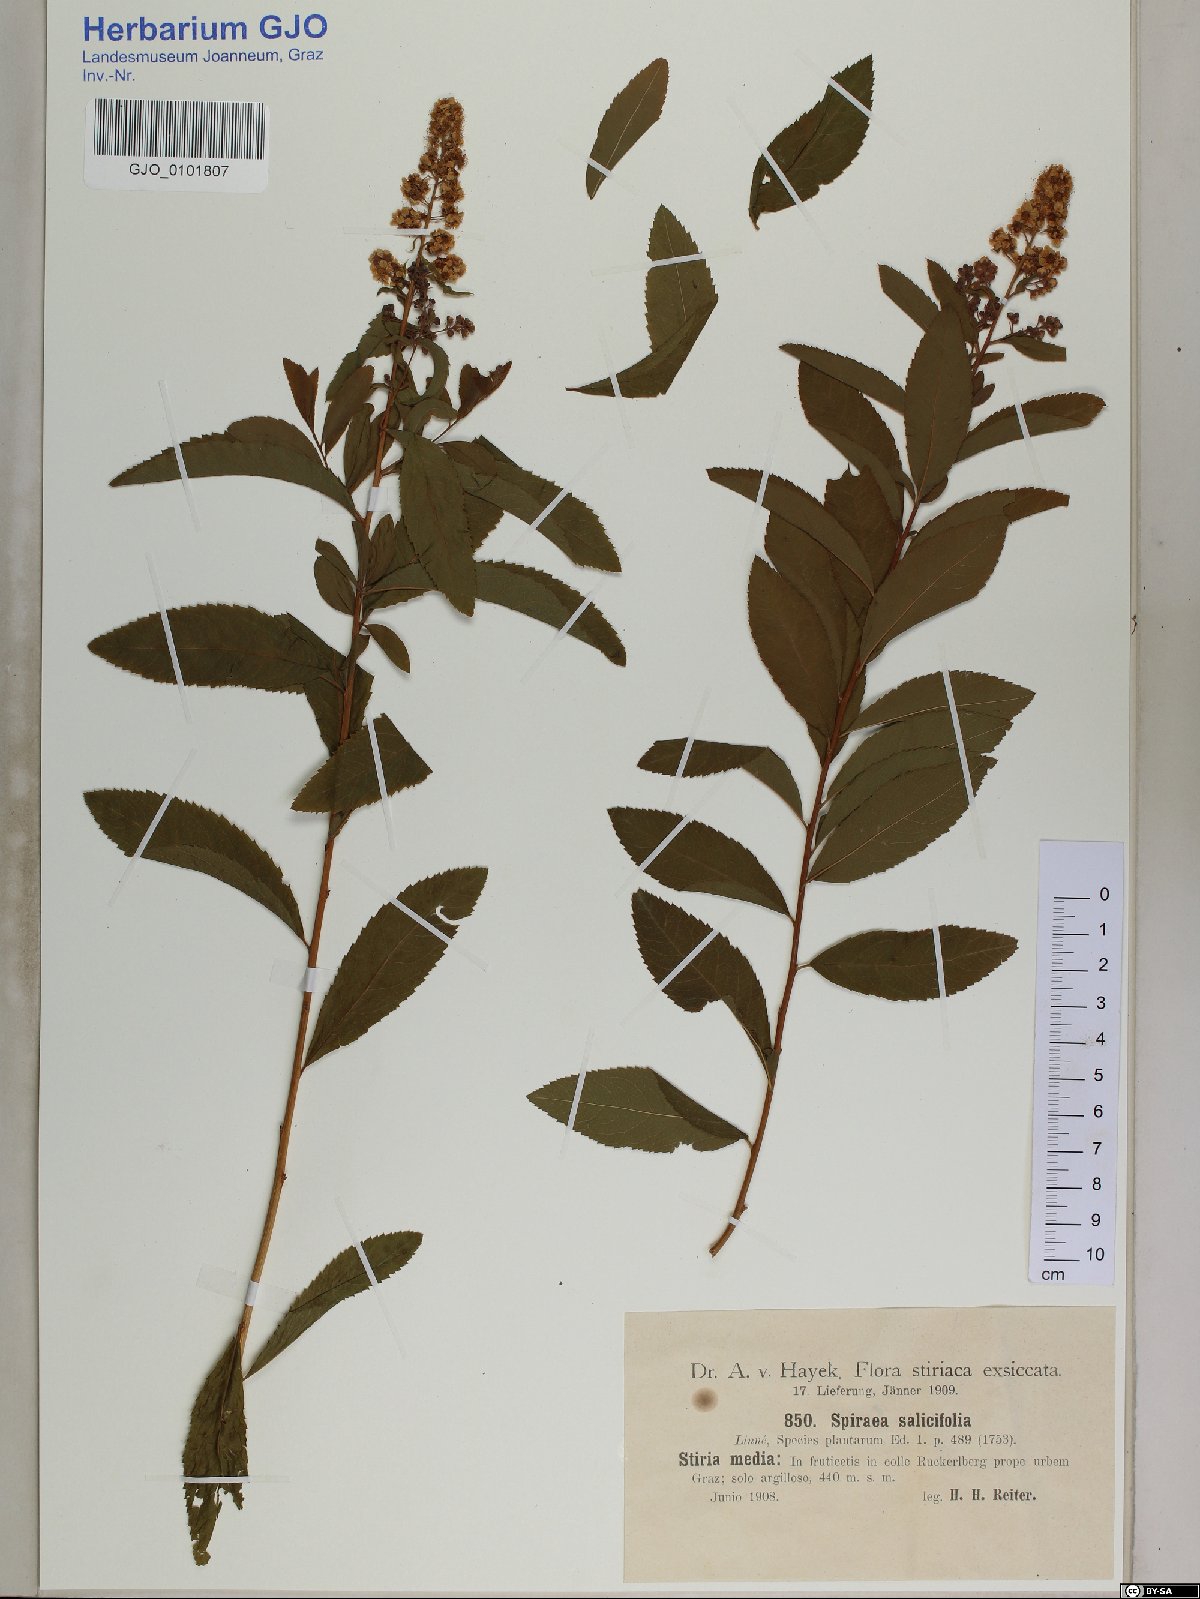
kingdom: Plantae
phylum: Tracheophyta
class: Magnoliopsida
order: Rosales
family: Rosaceae
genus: Spiraea
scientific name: Spiraea salicifolia
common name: Bridewort
